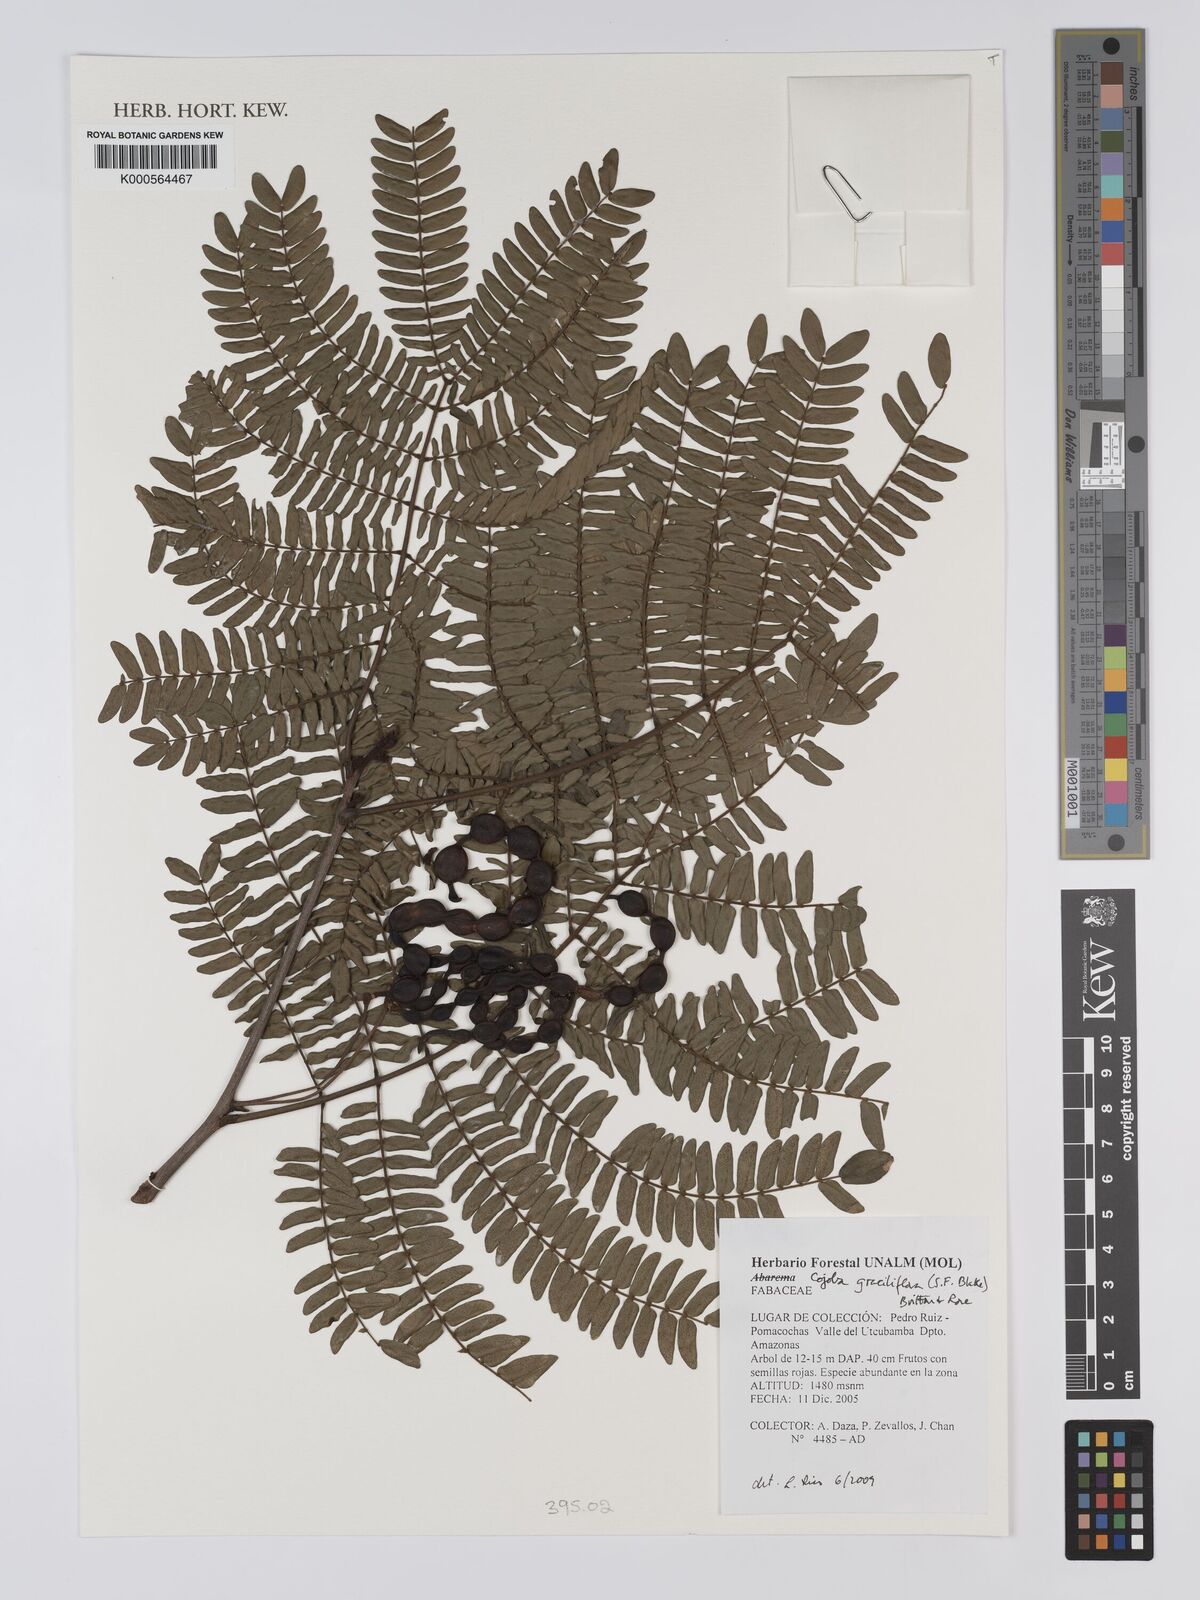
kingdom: Plantae
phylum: Tracheophyta
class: Magnoliopsida
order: Fabales
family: Fabaceae
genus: Cojoba
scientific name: Cojoba graciliflora
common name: Guadeloupe blackbead
